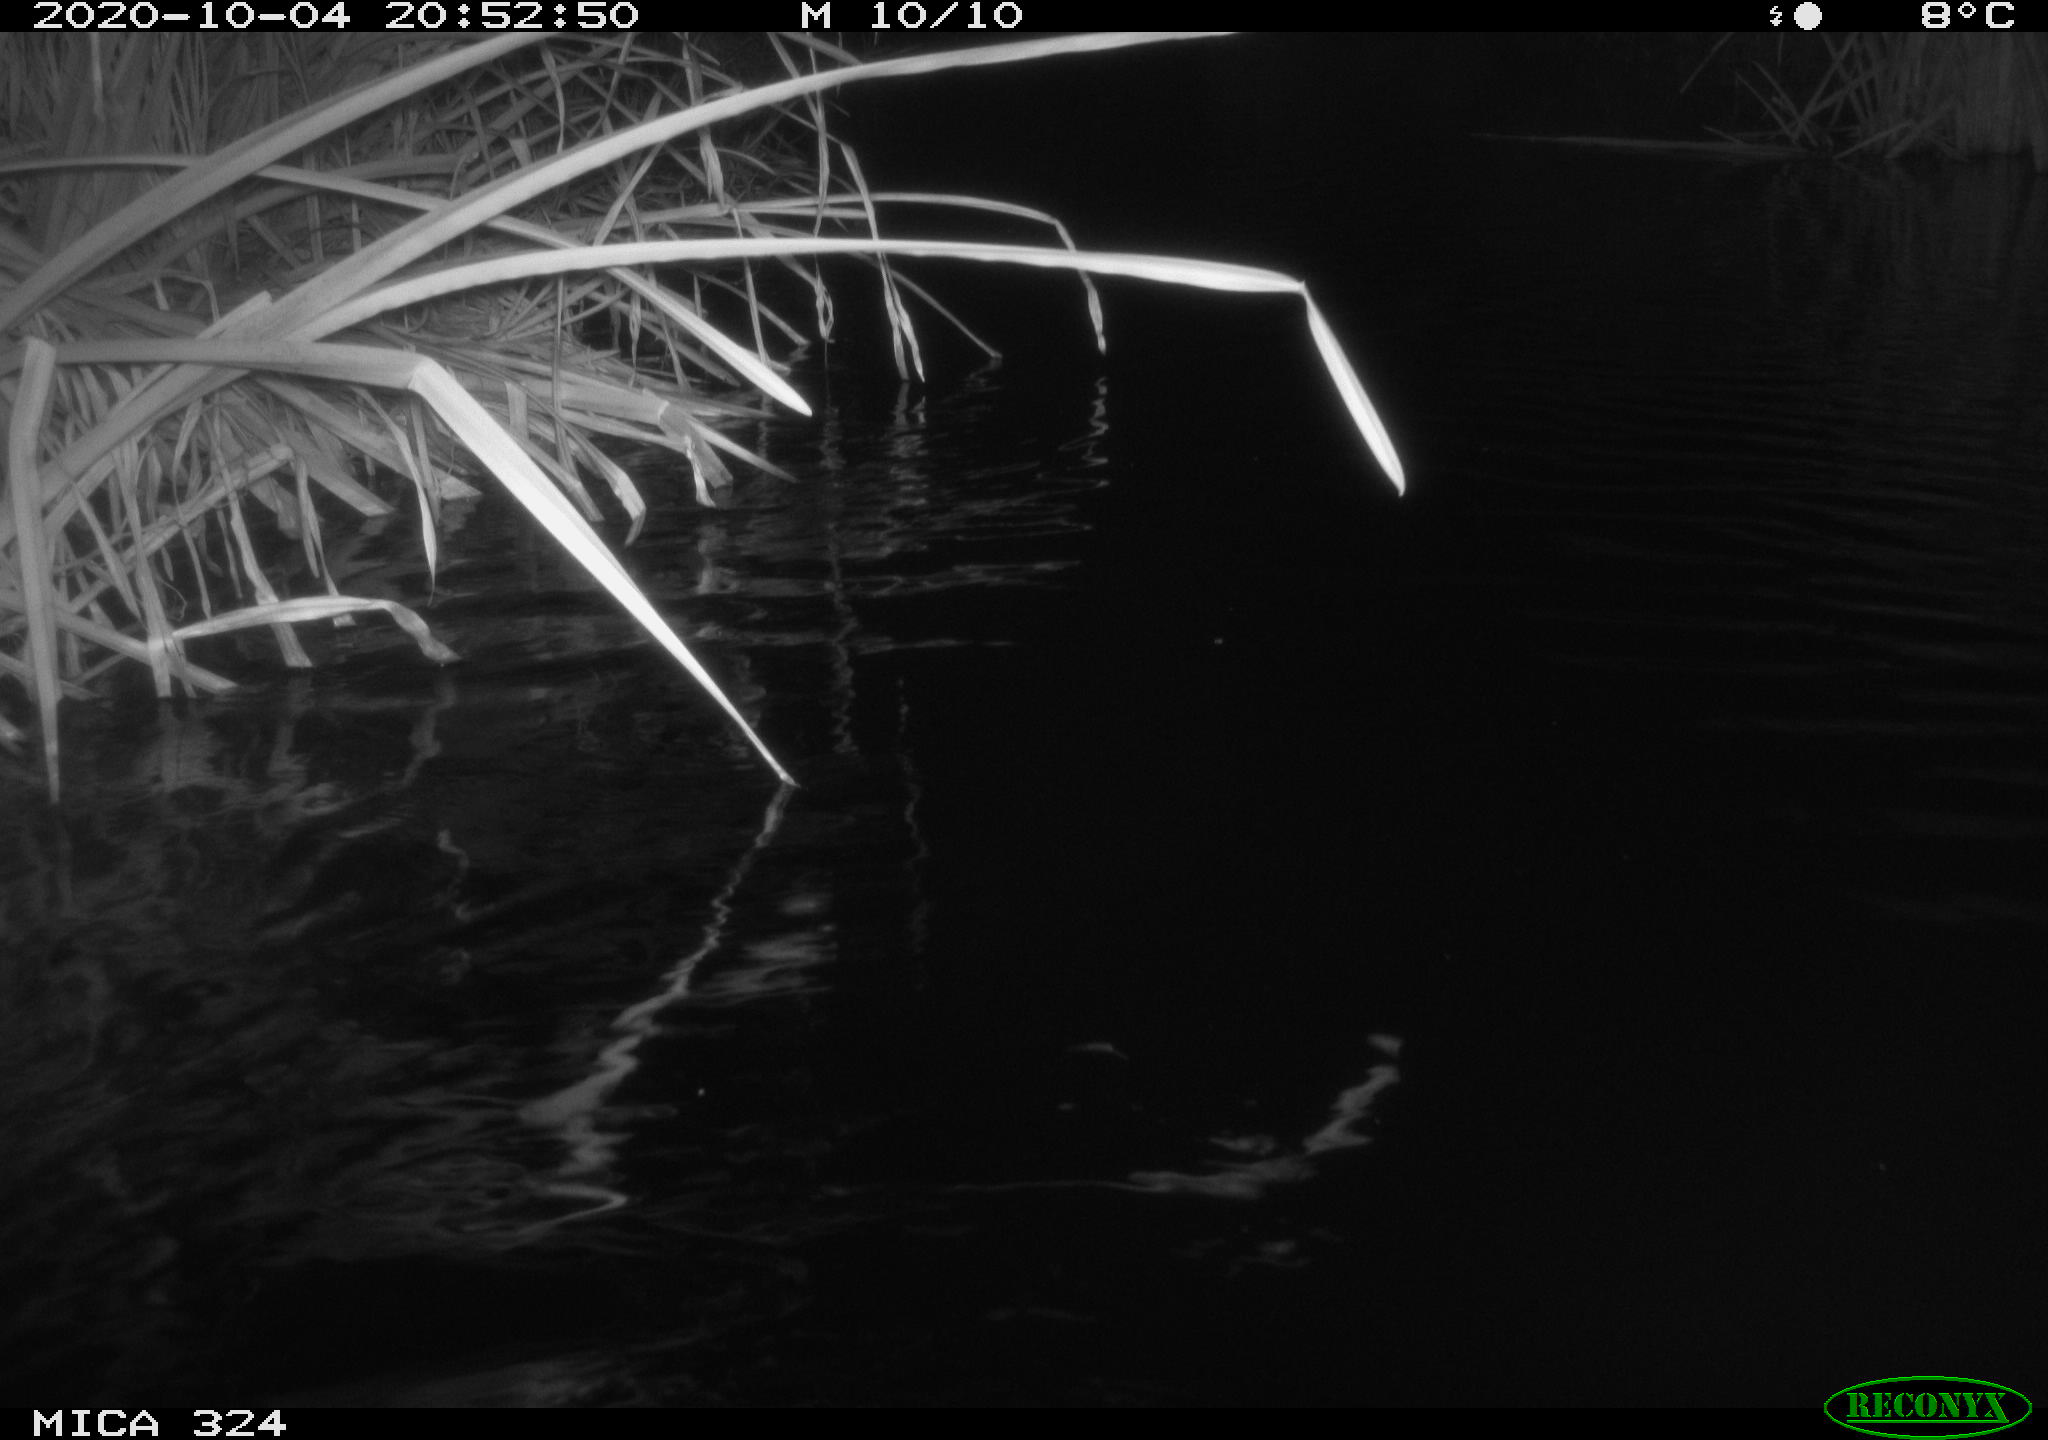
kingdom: Animalia
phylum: Chordata
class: Mammalia
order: Rodentia
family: Cricetidae
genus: Ondatra
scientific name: Ondatra zibethicus
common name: Muskrat
